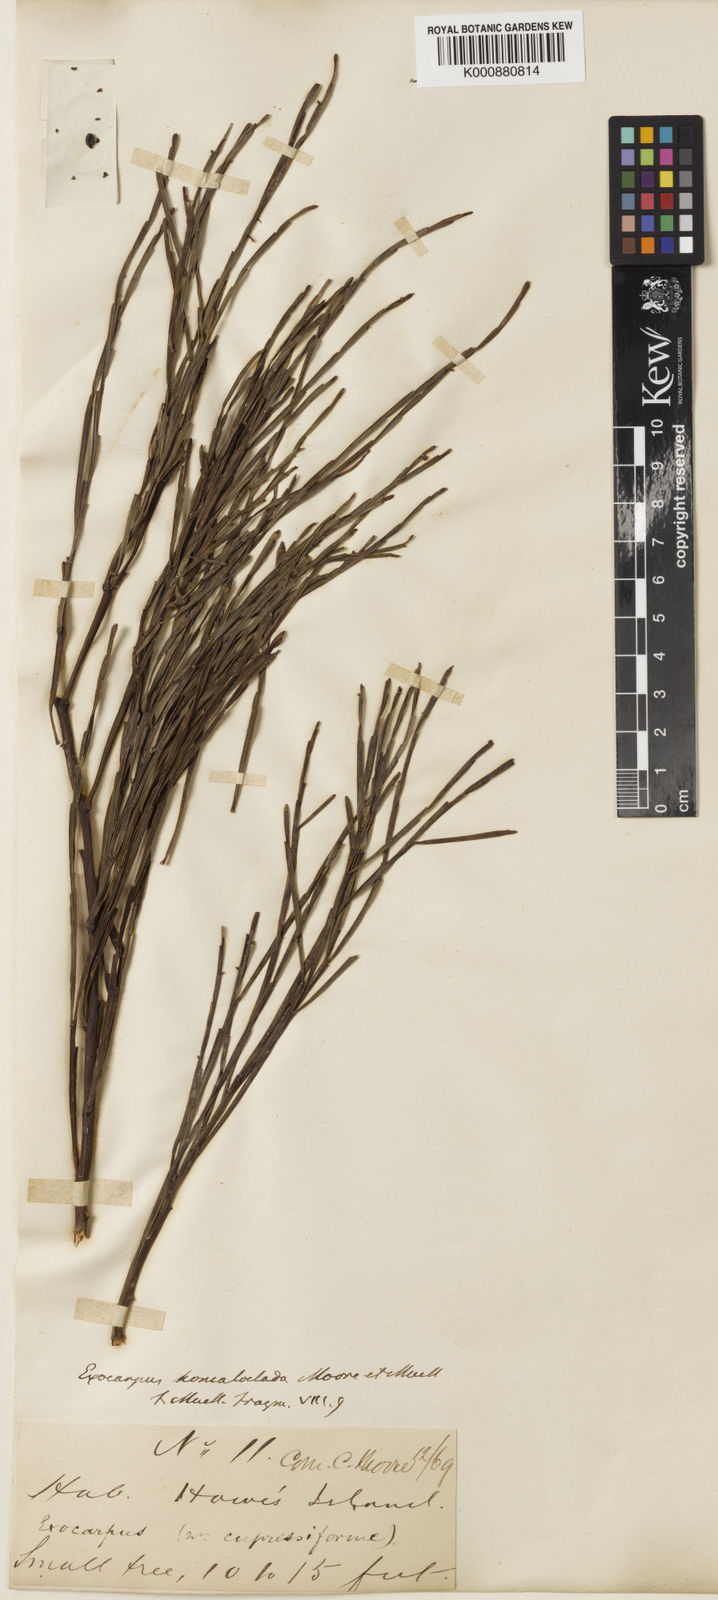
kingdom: Plantae
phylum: Tracheophyta
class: Magnoliopsida
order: Santalales
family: Santalaceae
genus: Exocarpos
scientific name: Exocarpos homalocladus
